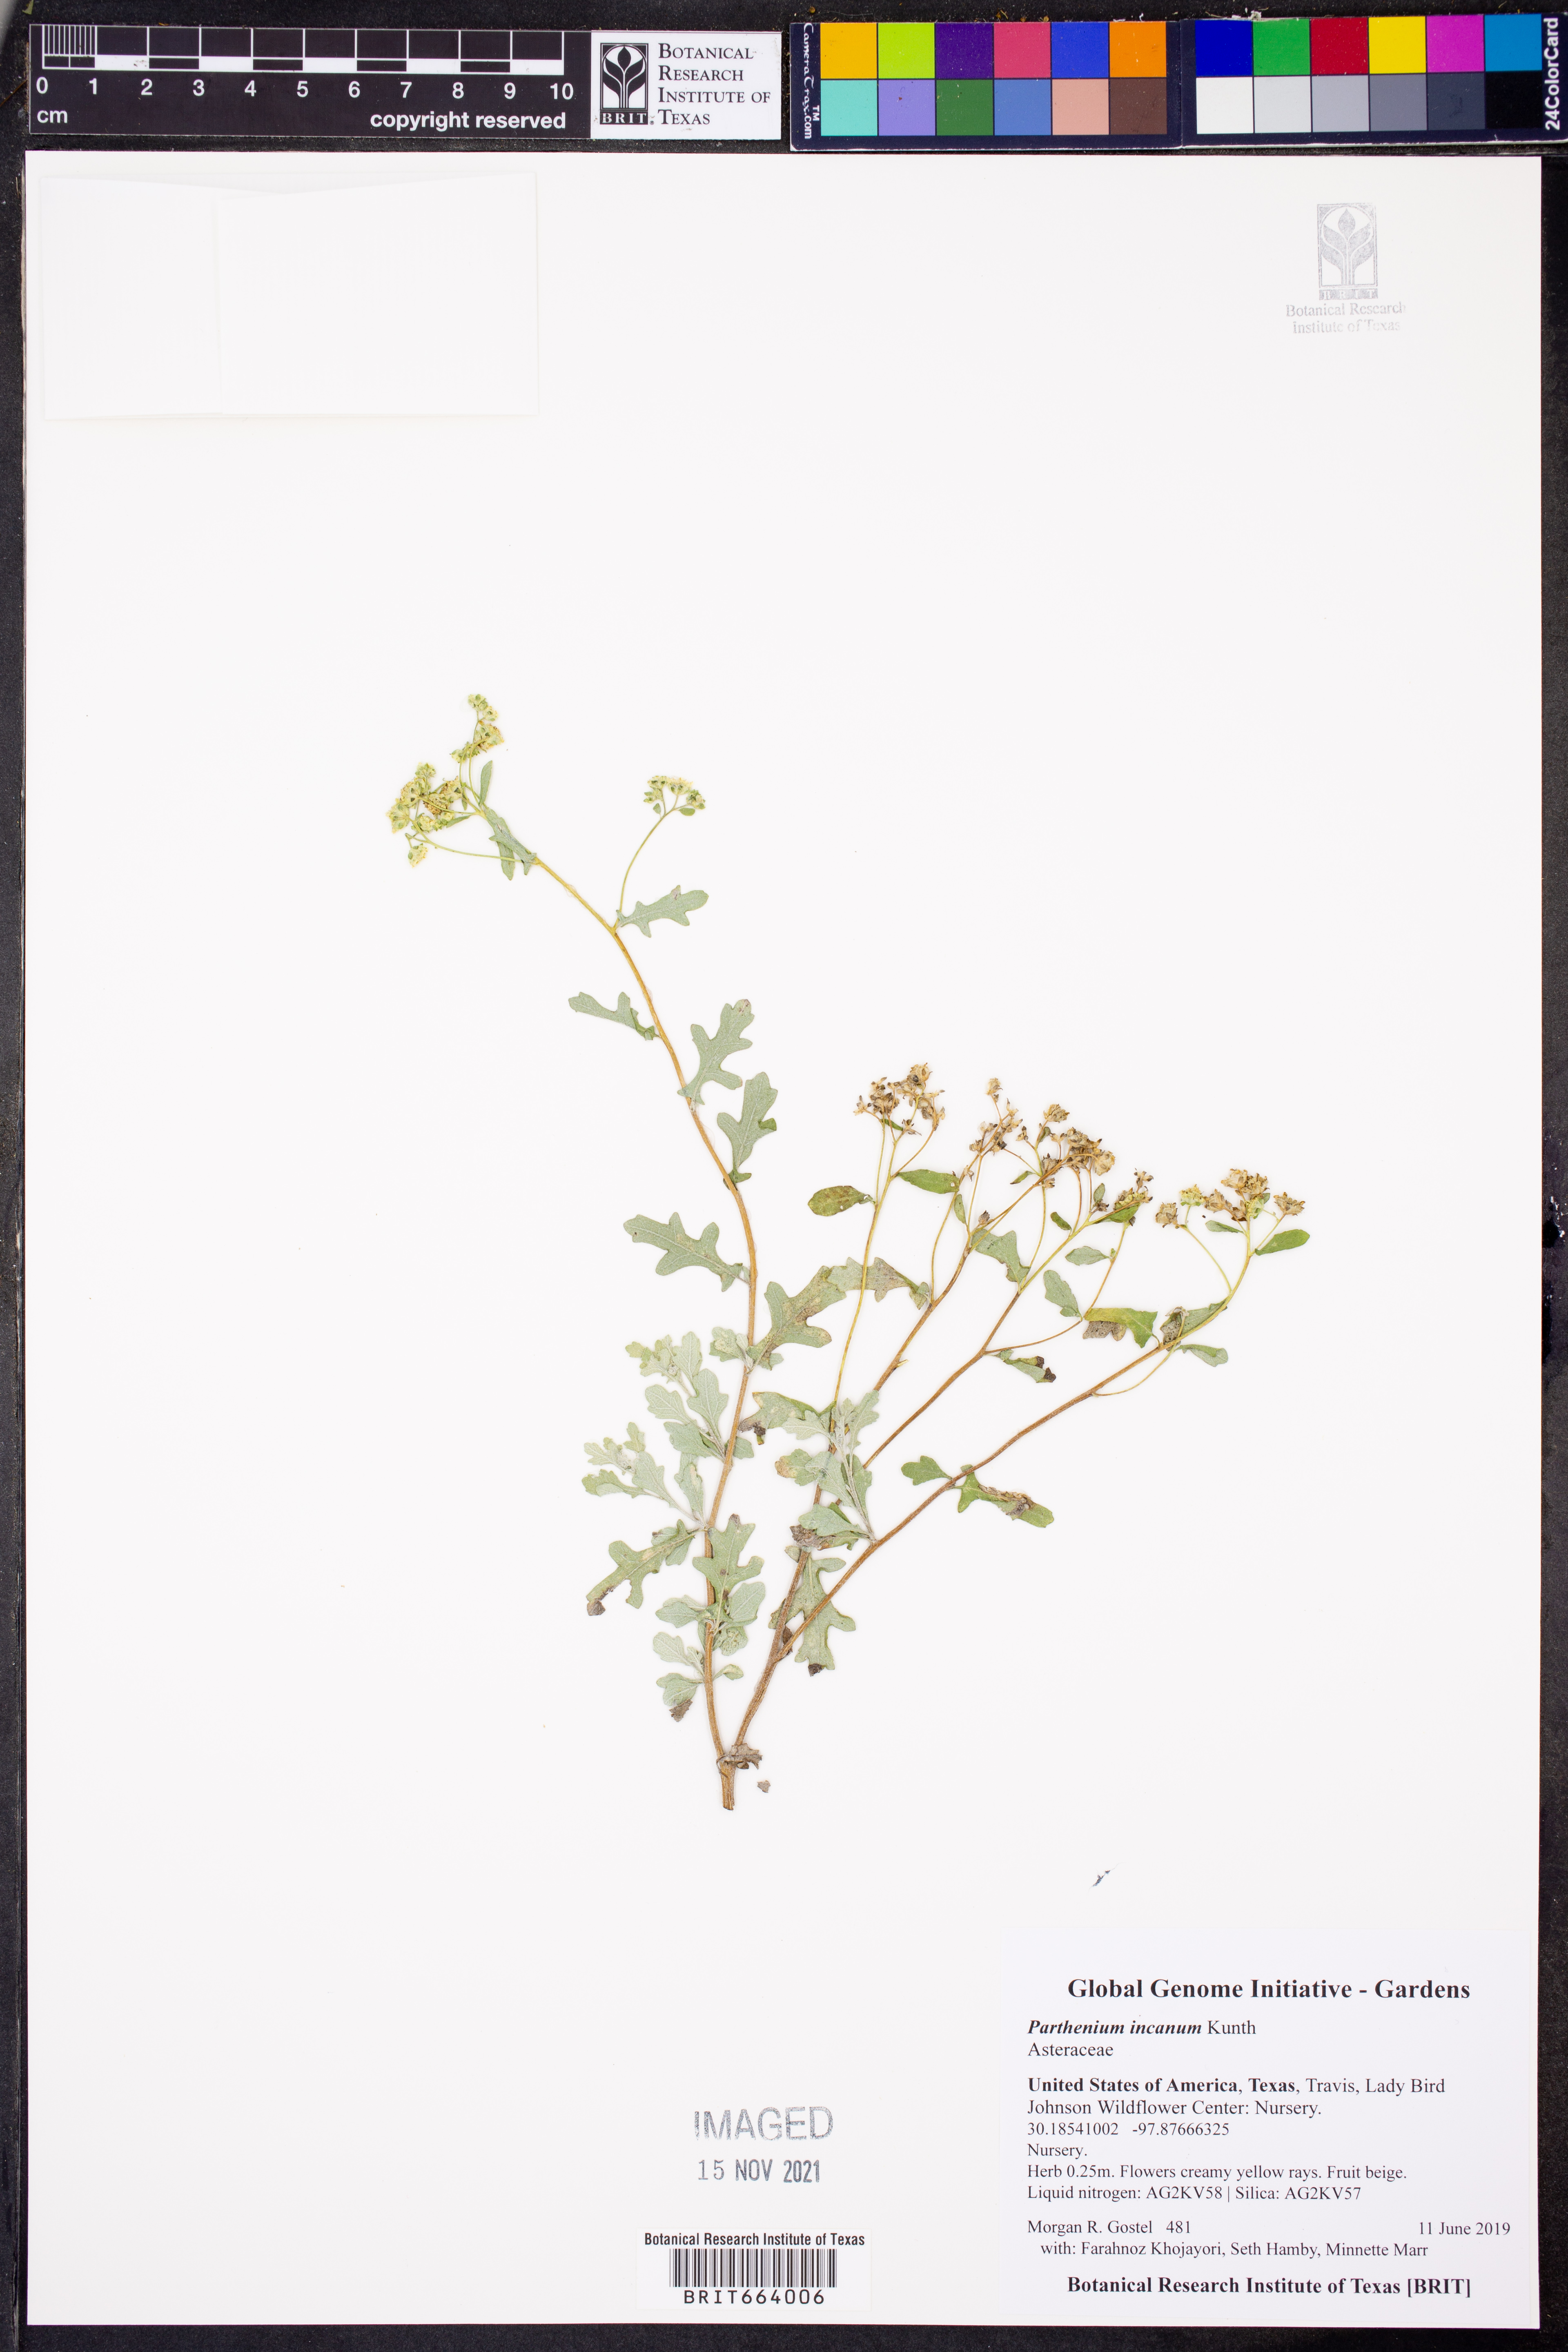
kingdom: Plantae
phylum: Tracheophyta
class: Magnoliopsida
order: Asterales
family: Asteraceae
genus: Parthenium
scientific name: Parthenium incanum
